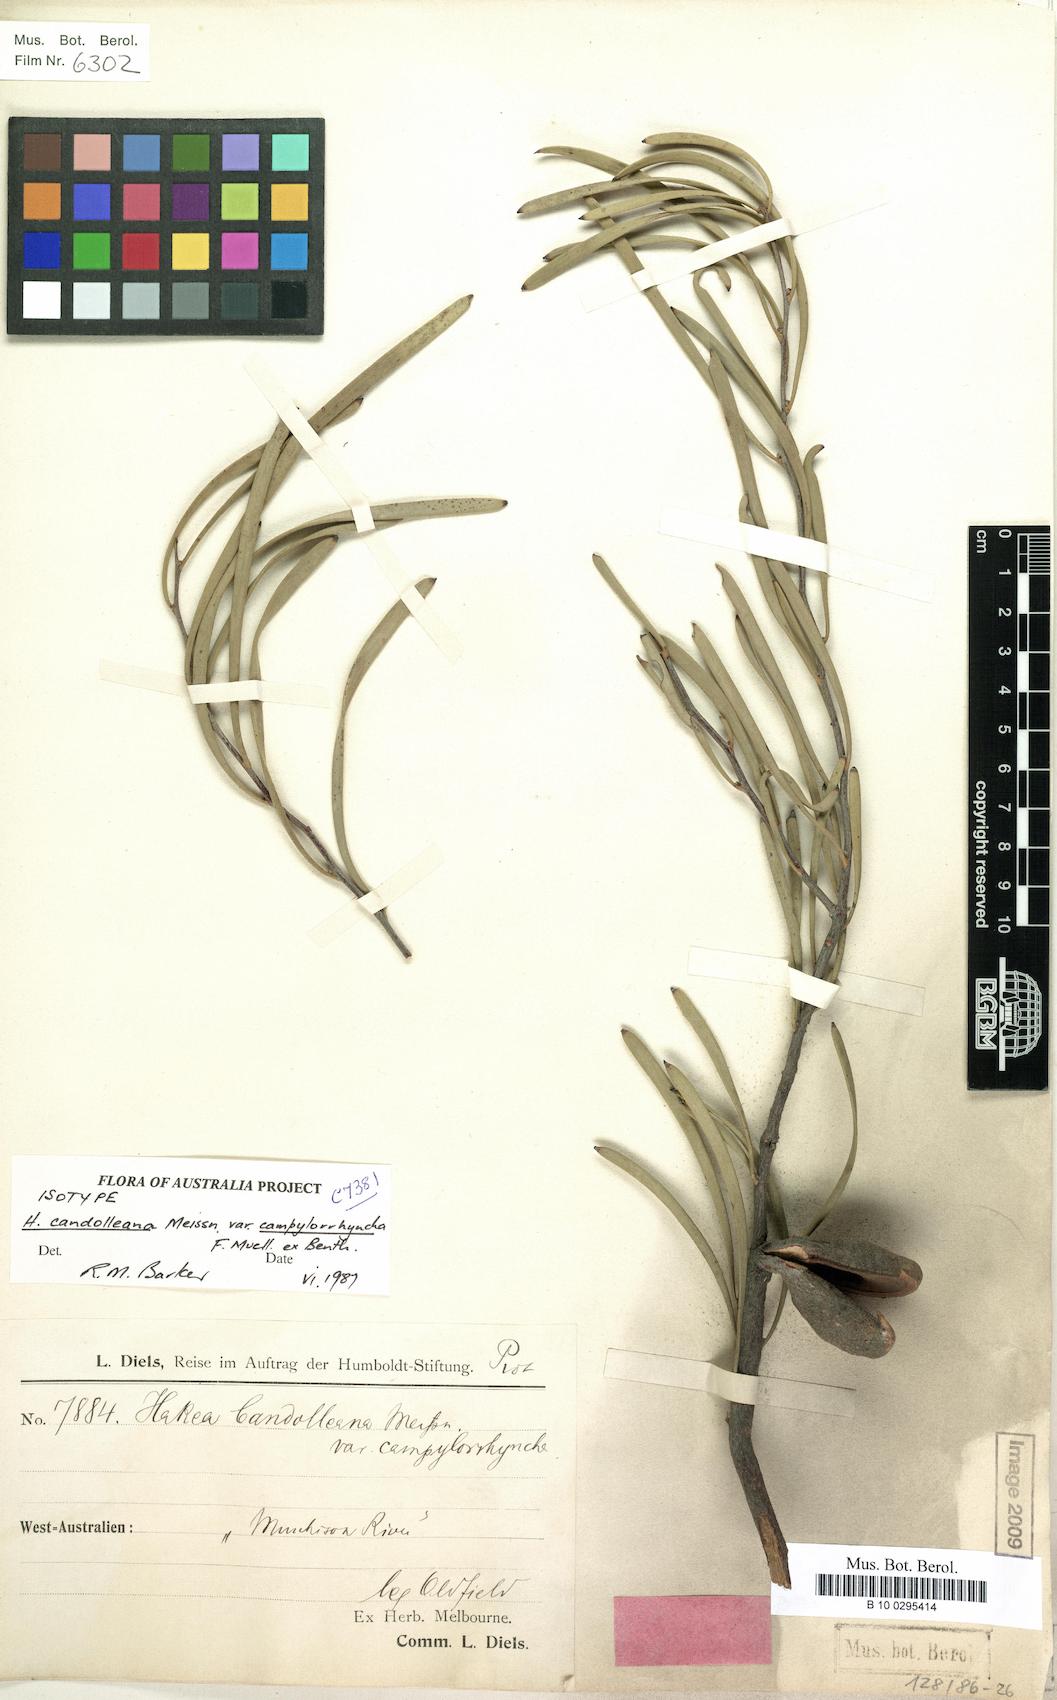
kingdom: Plantae
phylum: Tracheophyta
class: Magnoliopsida
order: Proteales
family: Proteaceae
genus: Hakea
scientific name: Hakea candolleana
